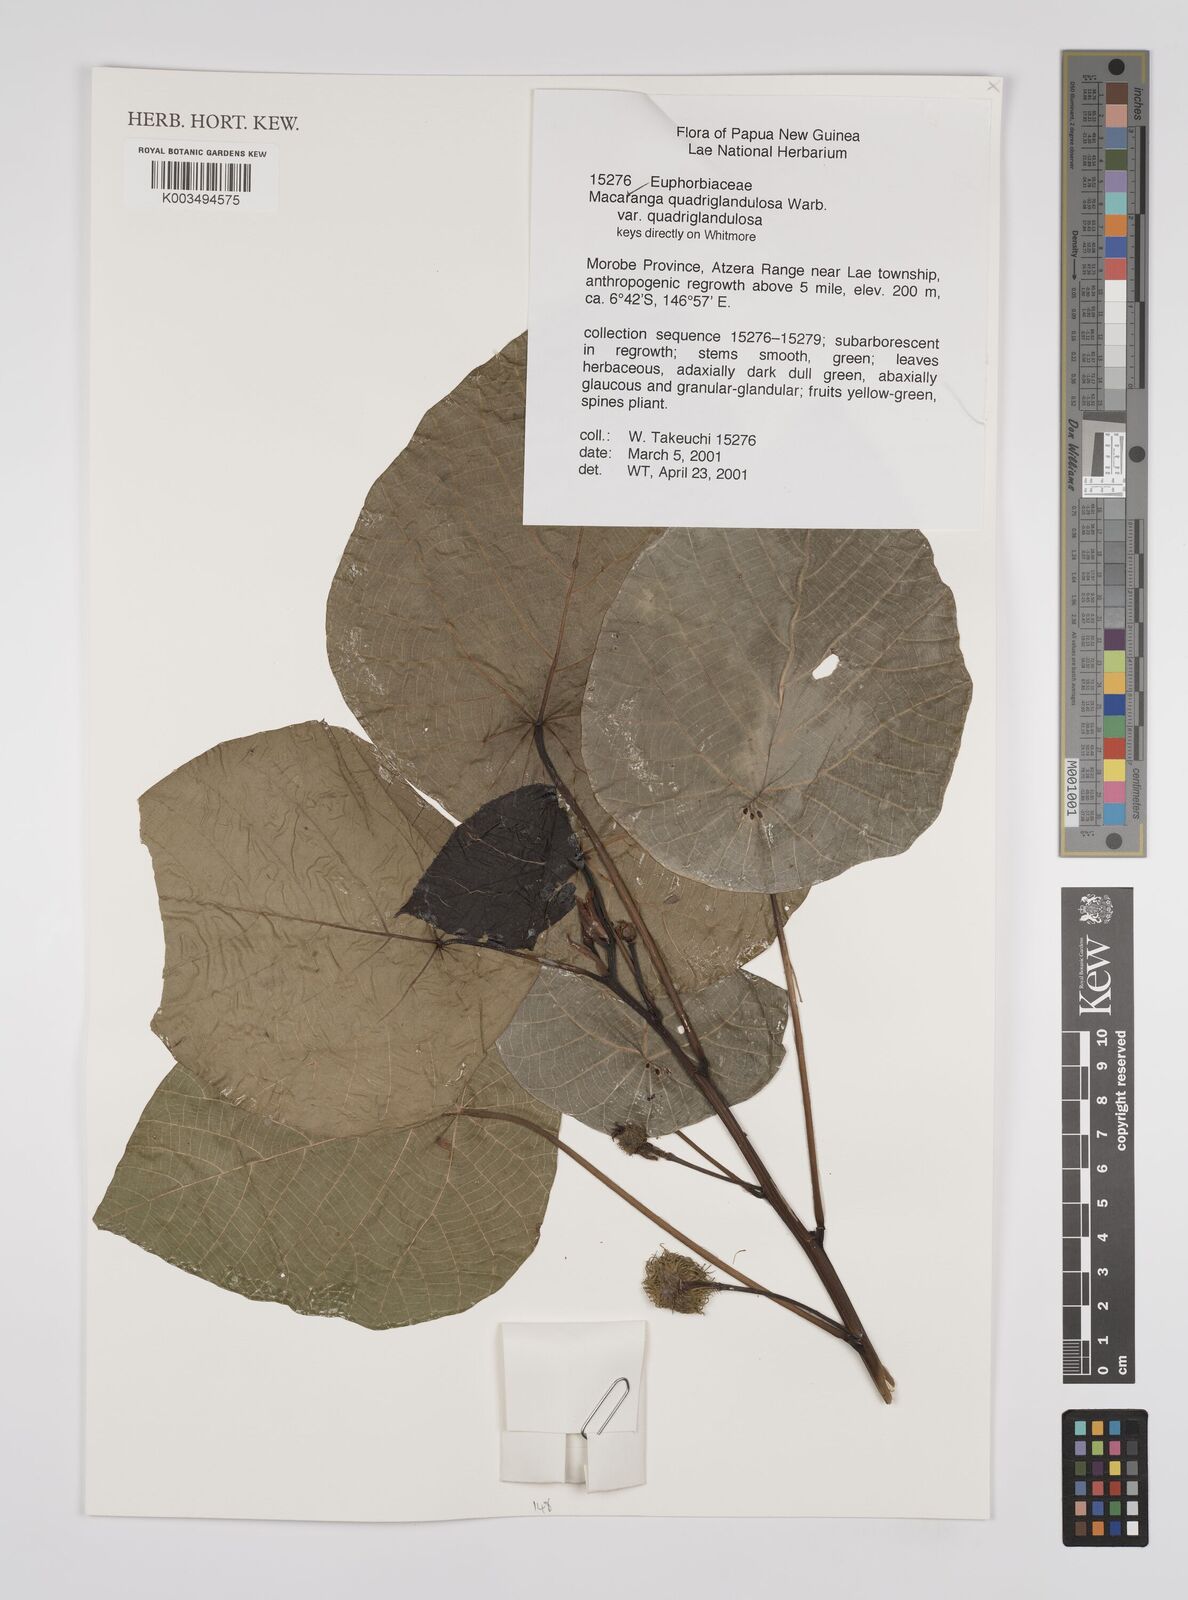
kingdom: Plantae
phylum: Tracheophyta
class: Magnoliopsida
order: Malpighiales
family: Euphorbiaceae
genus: Macaranga
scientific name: Macaranga quadriglandulosa
